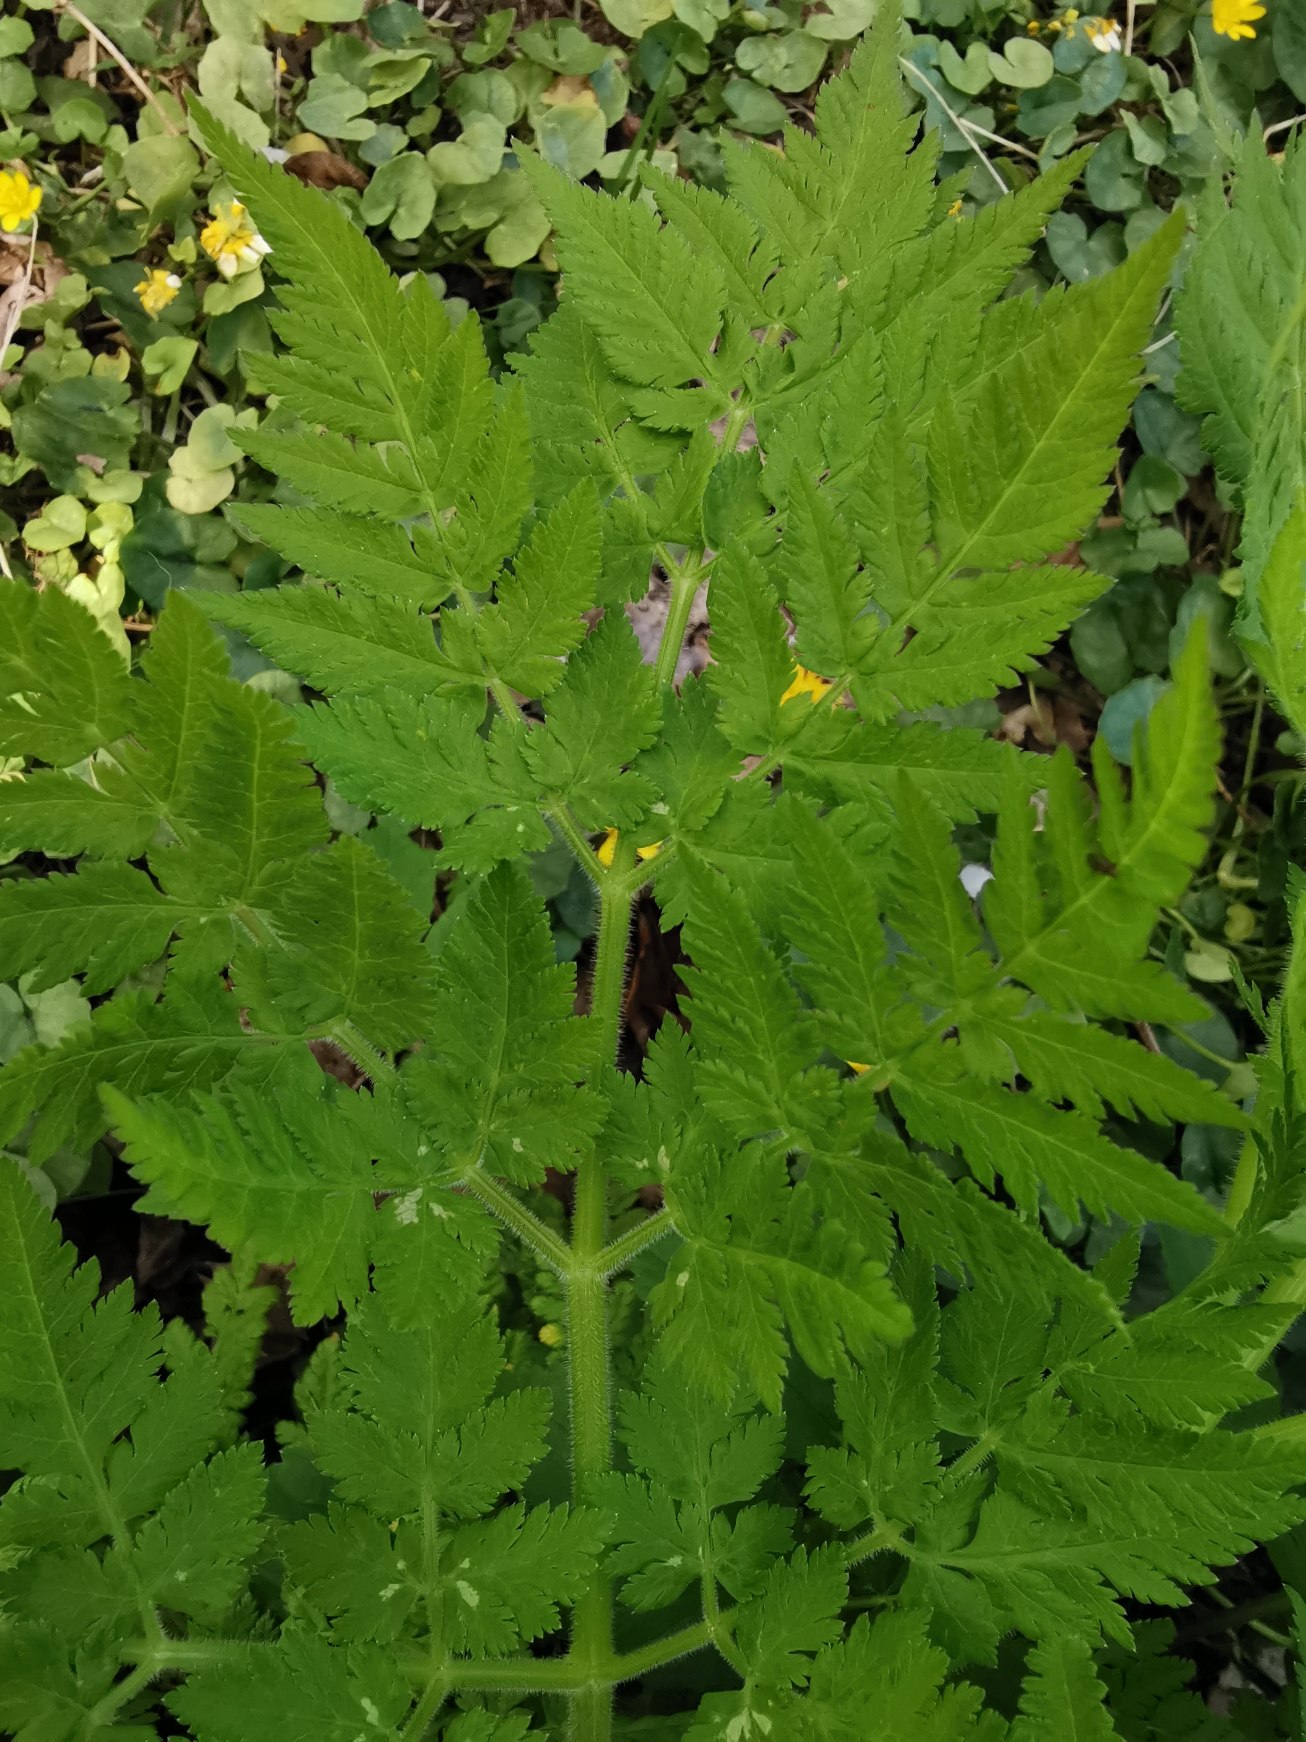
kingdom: Plantae
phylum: Tracheophyta
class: Magnoliopsida
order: Apiales
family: Apiaceae
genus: Myrrhis
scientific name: Myrrhis odorata
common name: Sødskærm
